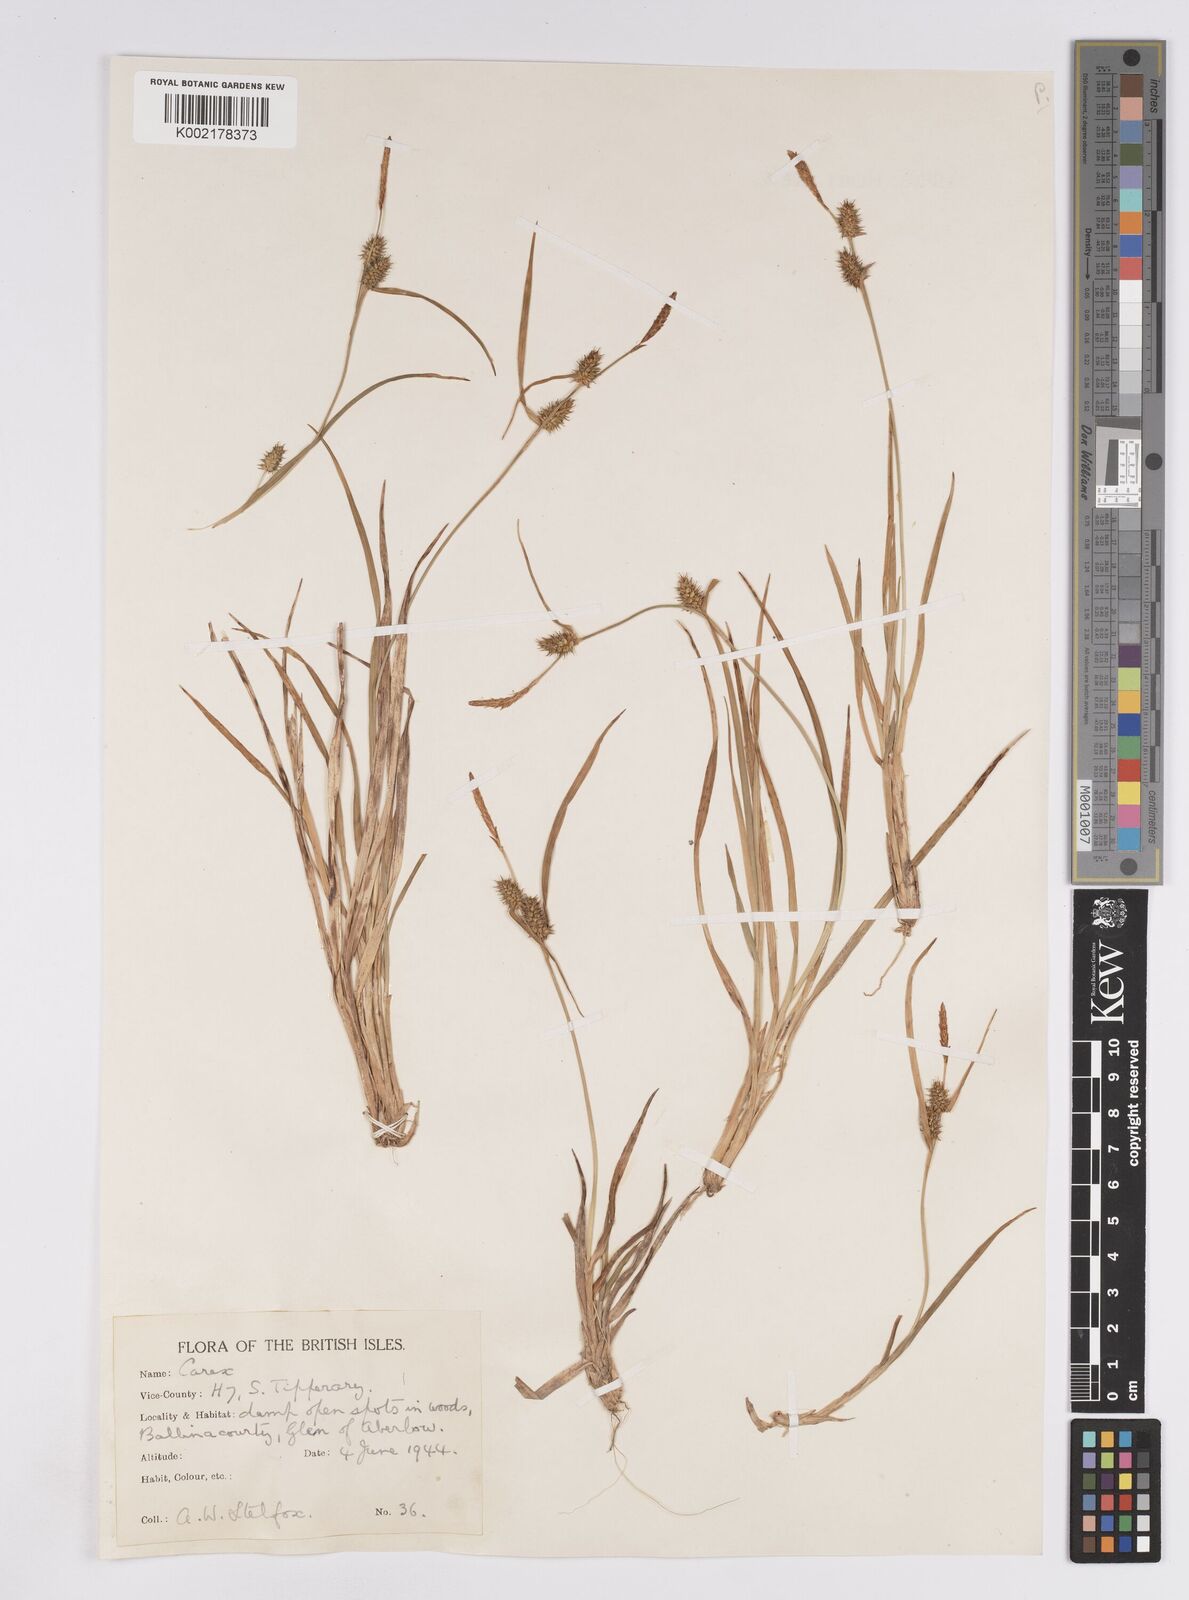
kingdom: Plantae
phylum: Tracheophyta
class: Liliopsida
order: Poales
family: Cyperaceae
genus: Carex
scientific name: Carex demissa
